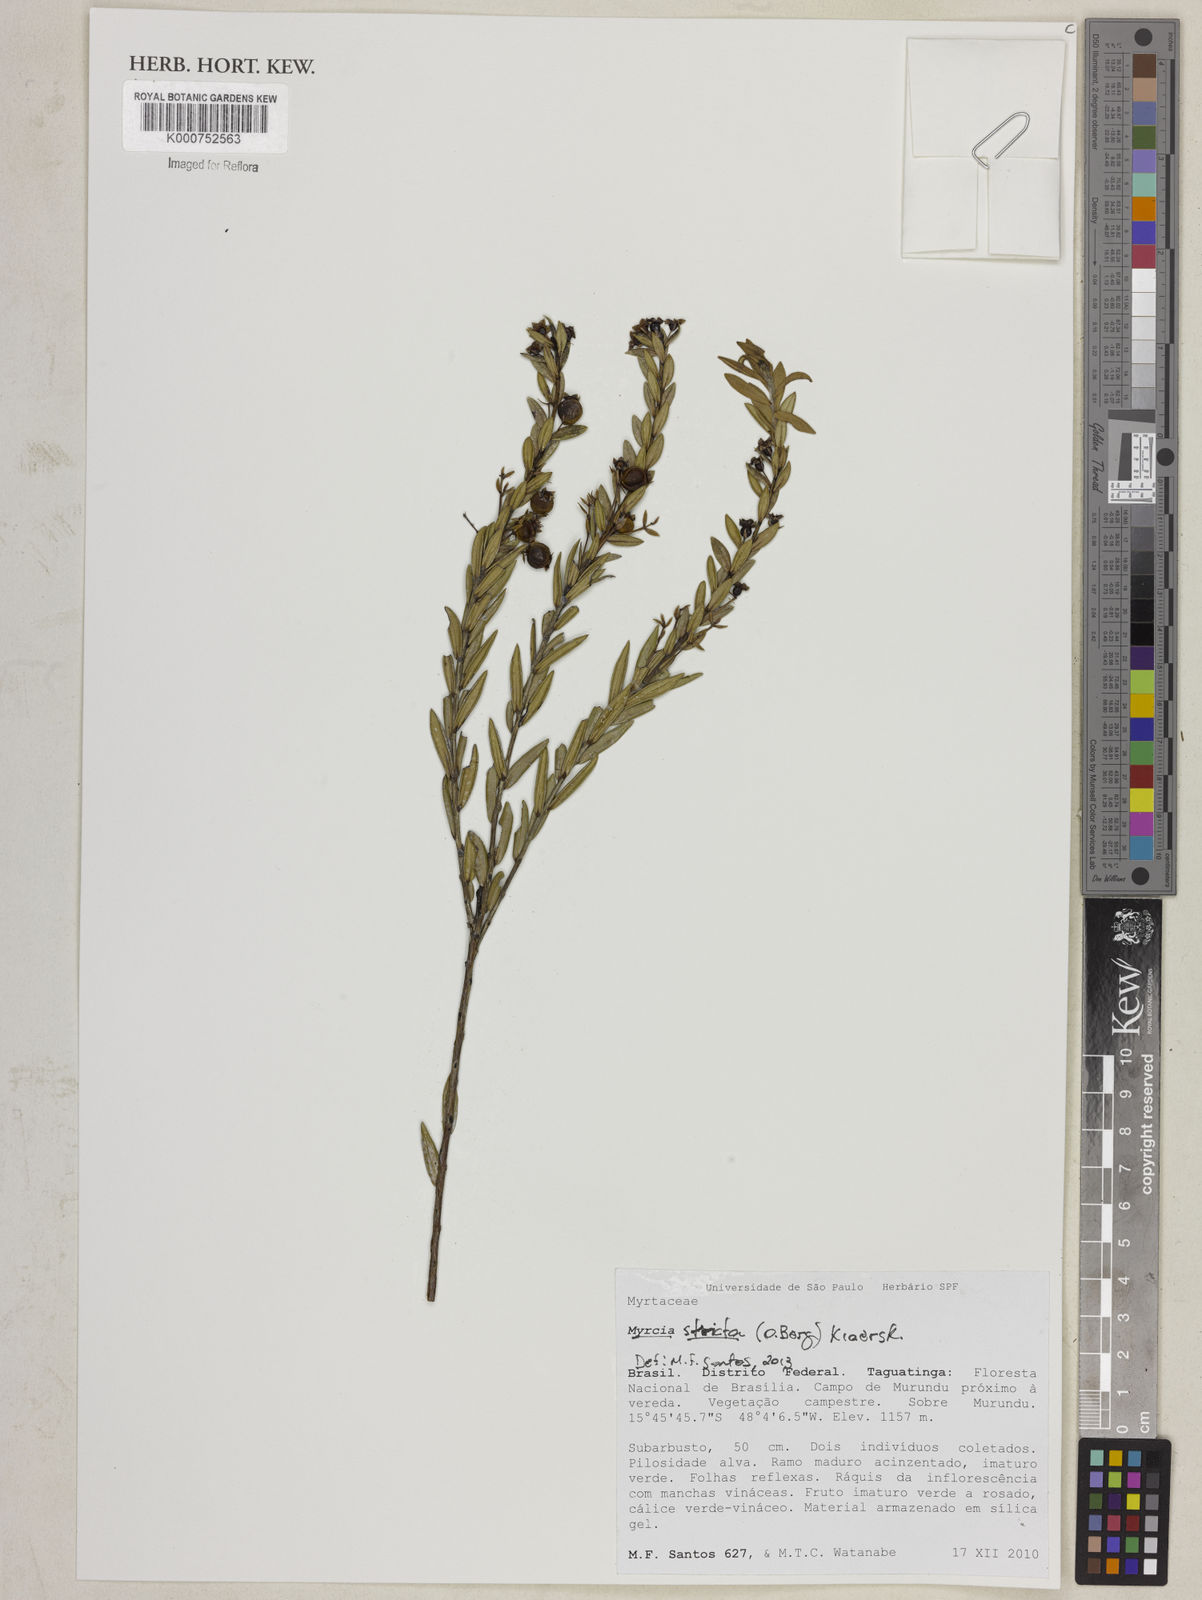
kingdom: Plantae
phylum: Tracheophyta
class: Magnoliopsida
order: Myrtales
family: Myrtaceae
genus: Myrcia
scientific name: Myrcia stricta
